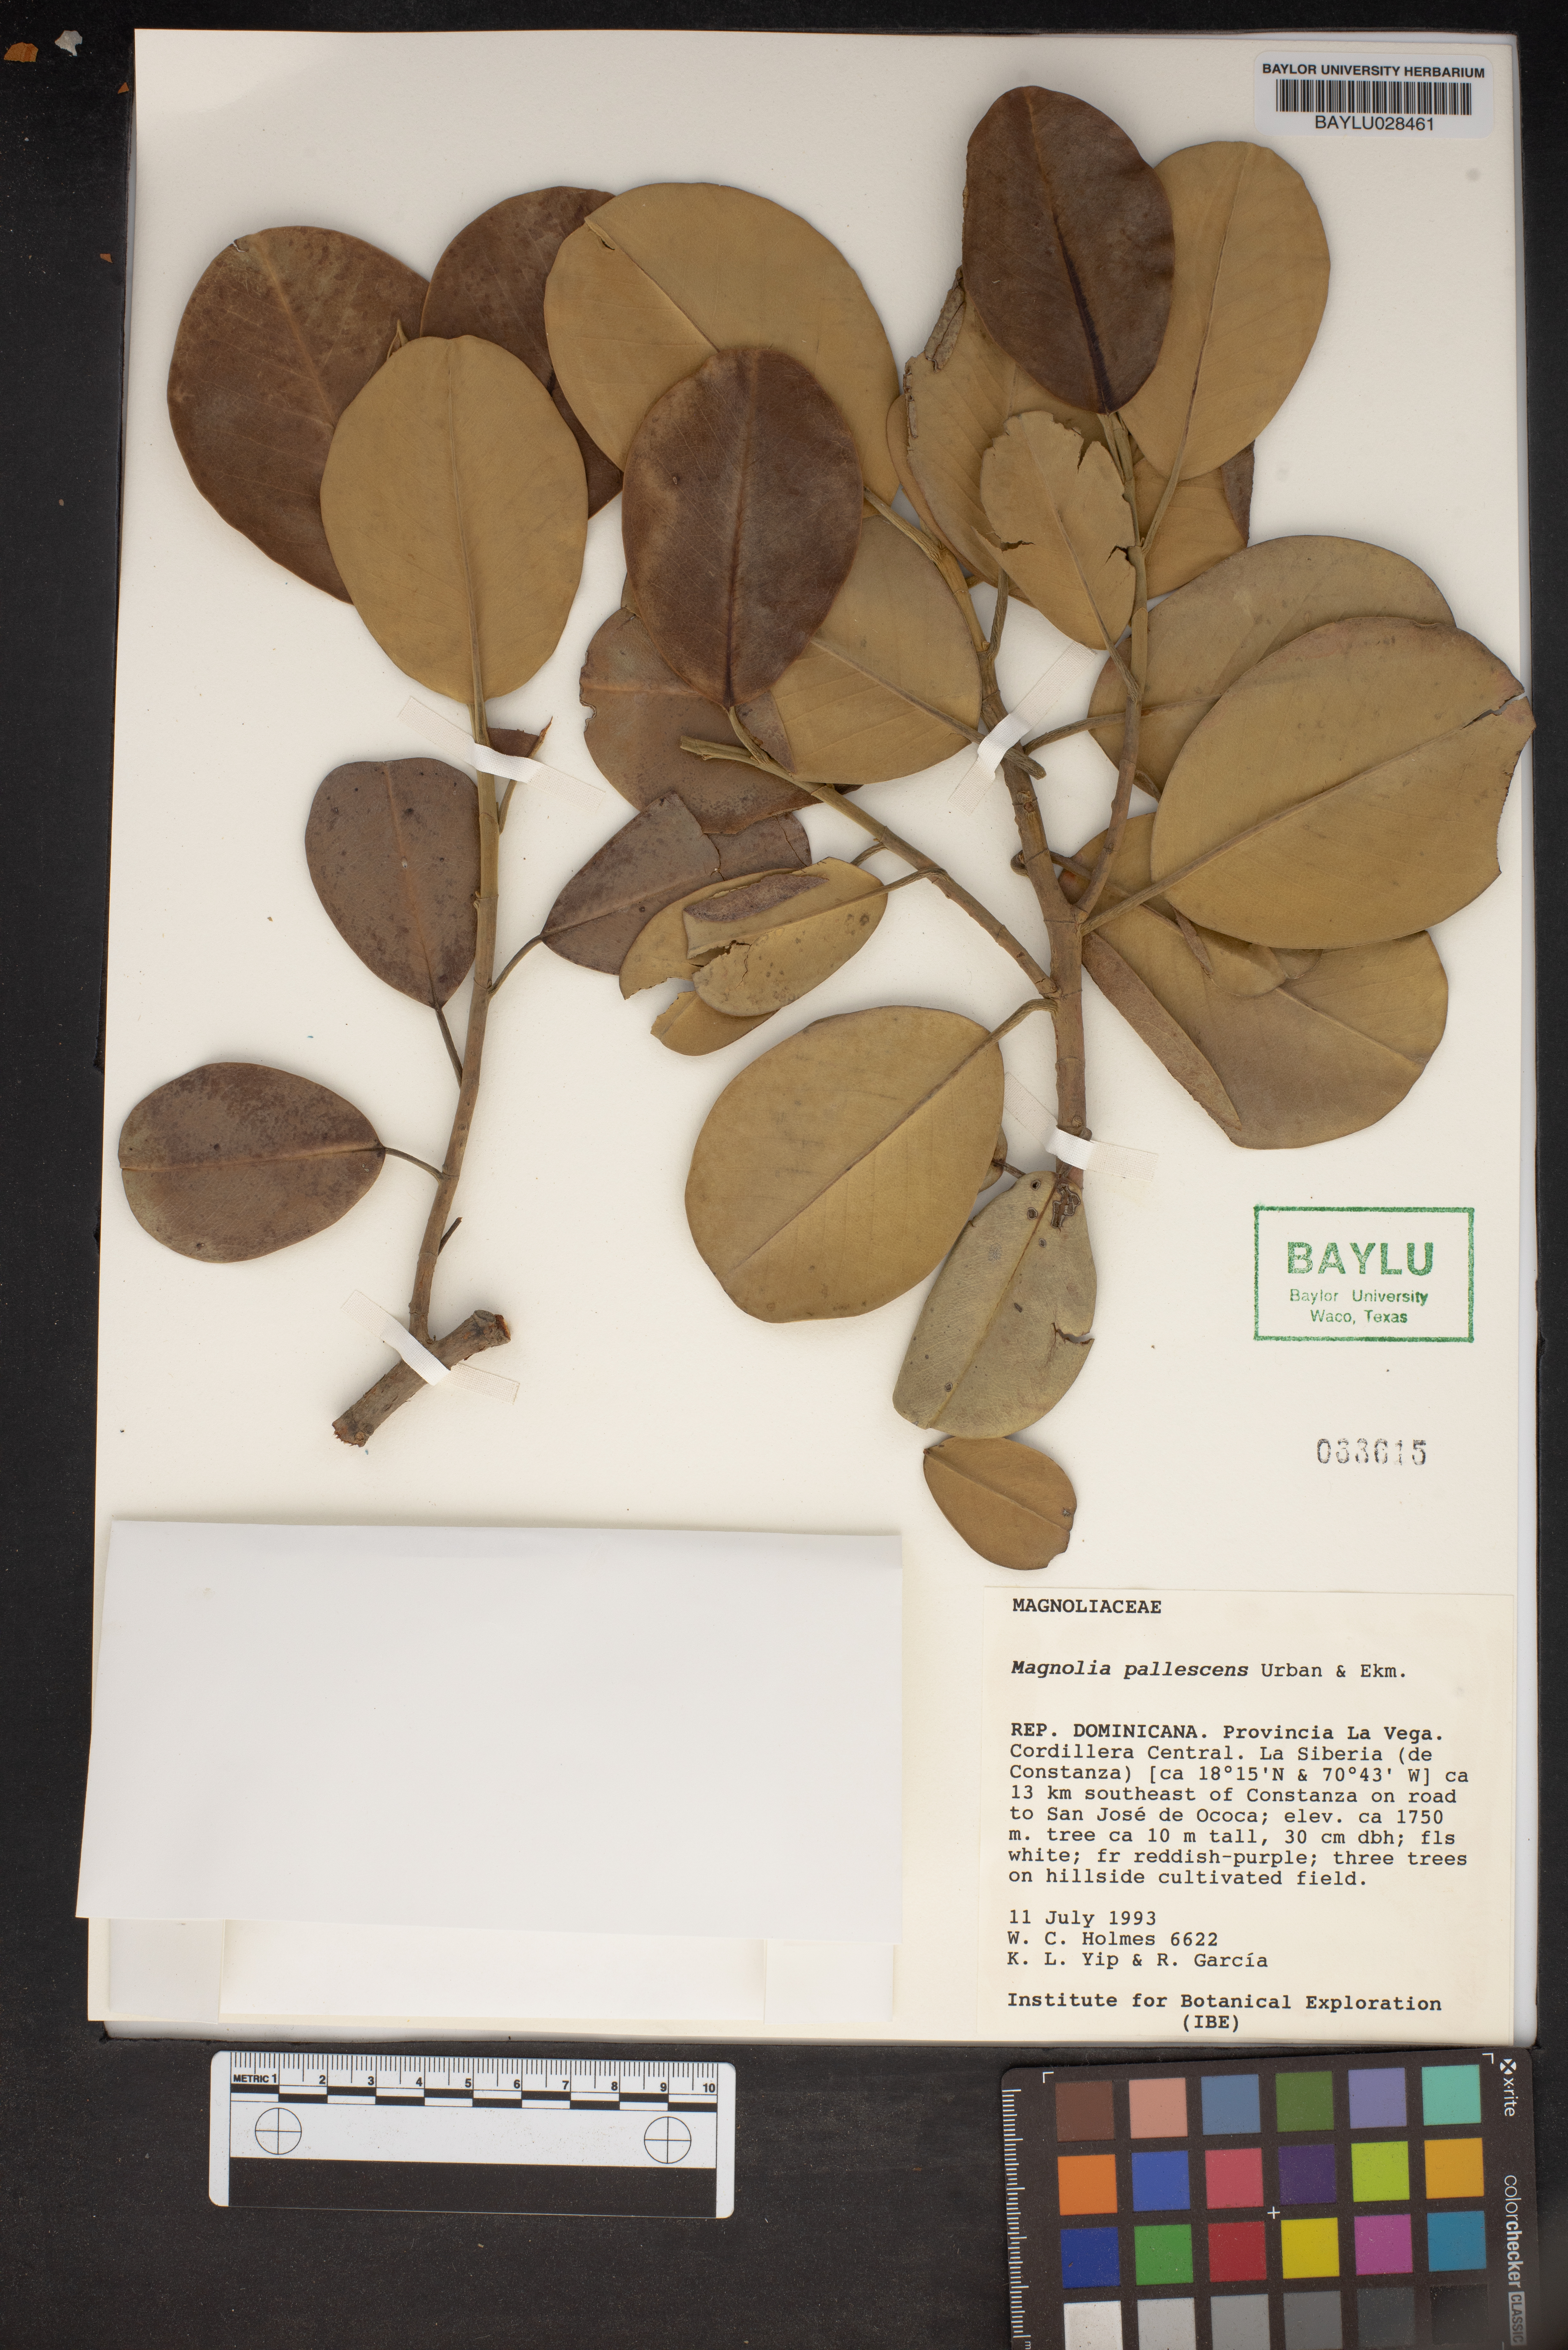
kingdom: Plantae
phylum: Tracheophyta
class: Magnoliopsida
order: Magnoliales
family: Magnoliaceae
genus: Magnolia
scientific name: Magnolia pallescens
